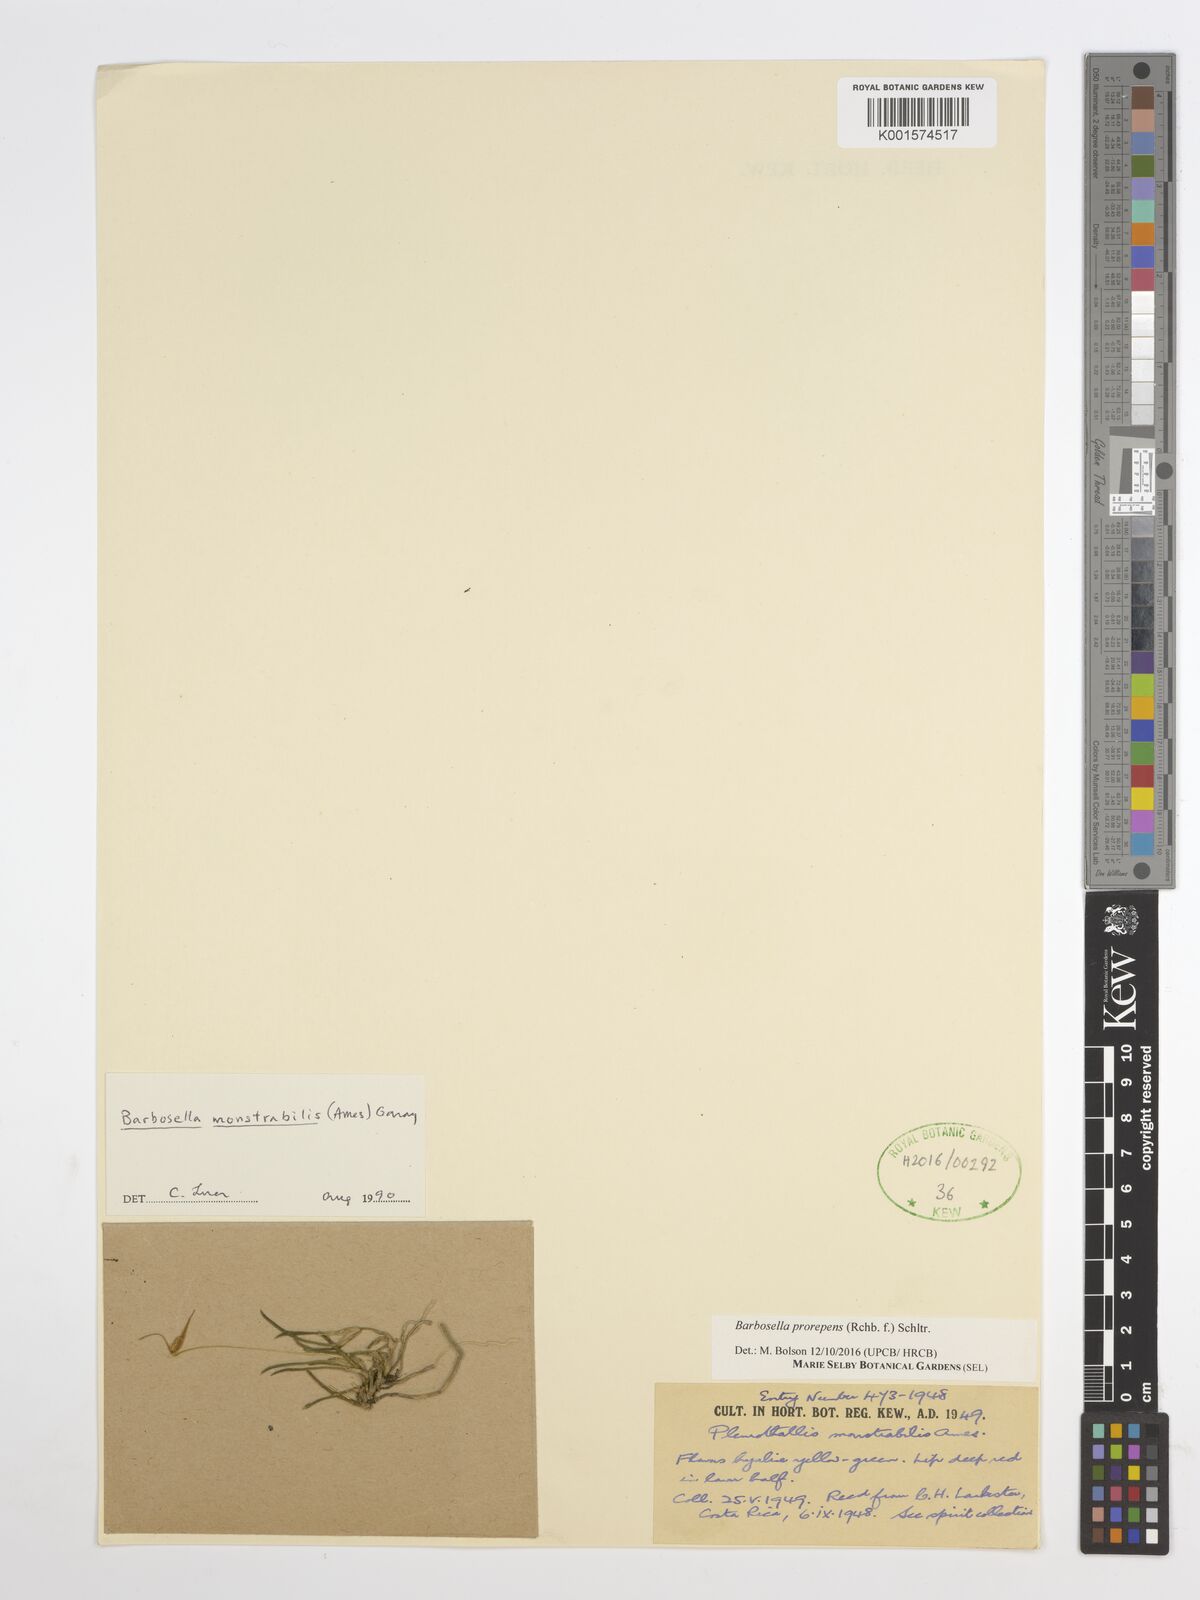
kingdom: Plantae
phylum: Tracheophyta
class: Liliopsida
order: Asparagales
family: Orchidaceae
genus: Barbosella
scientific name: Barbosella prorepens
